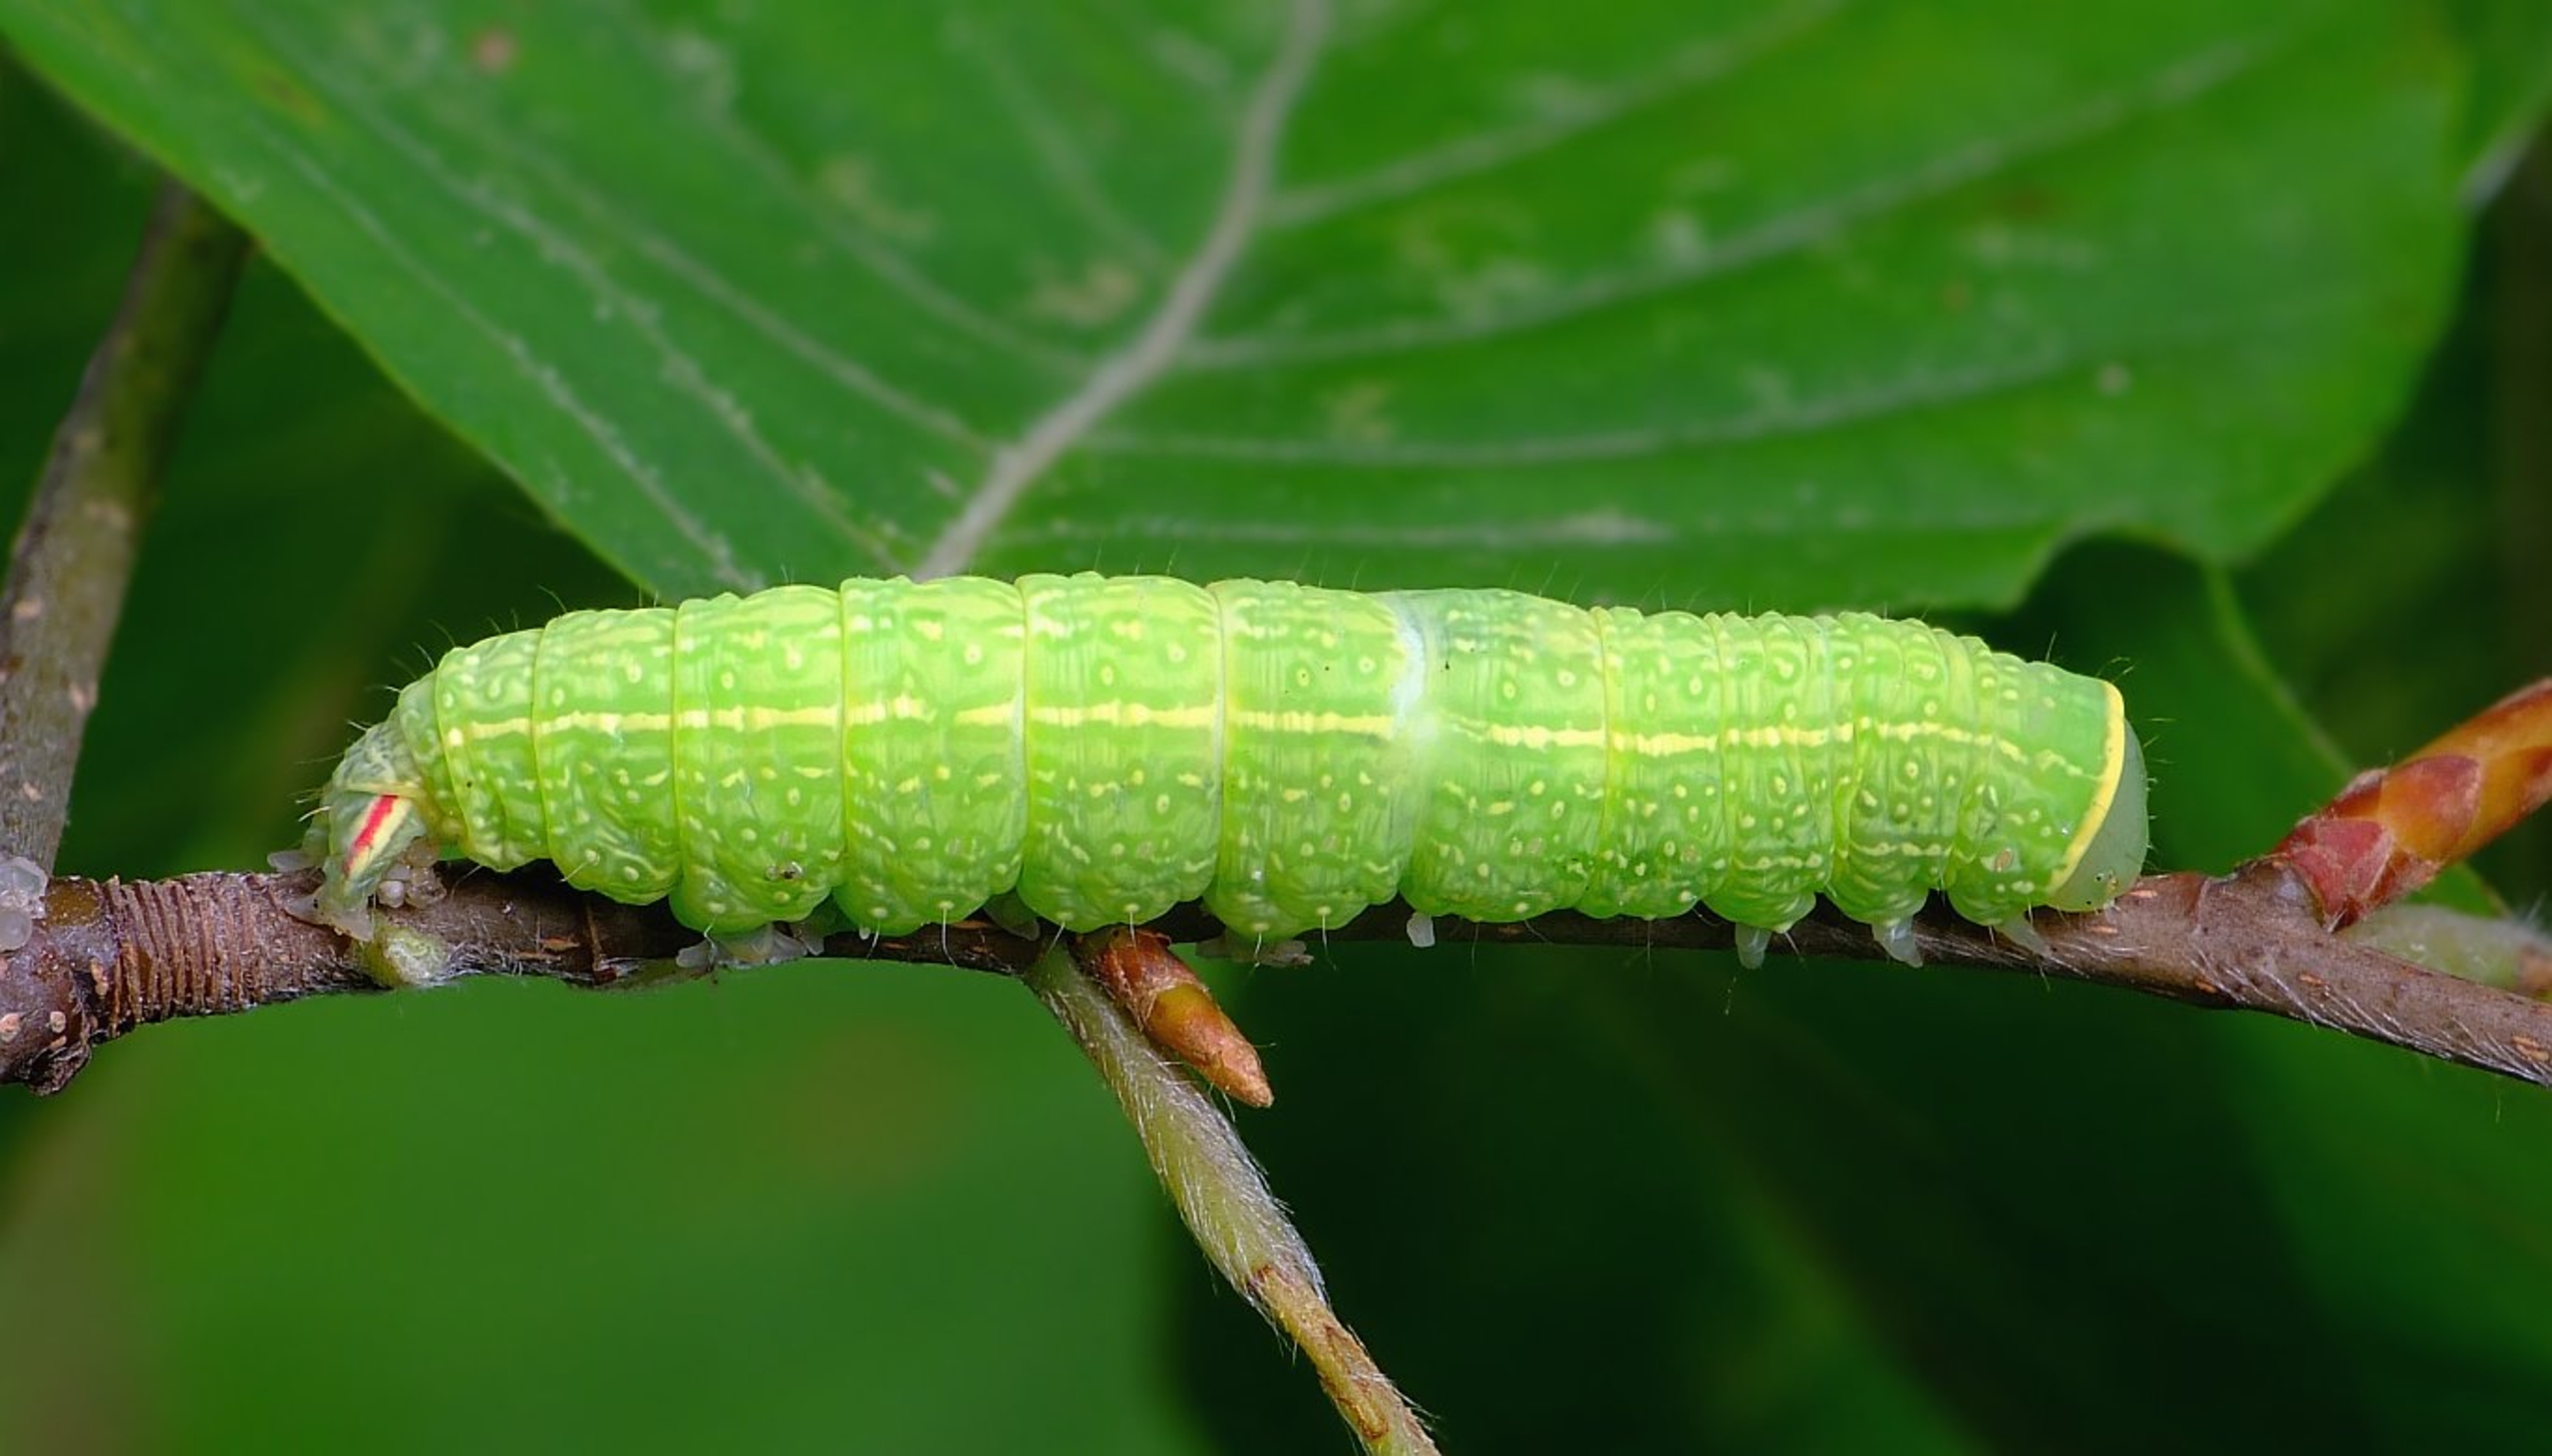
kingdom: Animalia
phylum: Arthropoda
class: Insecta
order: Lepidoptera
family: Nolidae
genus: Pseudoips
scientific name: Pseudoips prasinana
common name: Grøn bøgeugle
